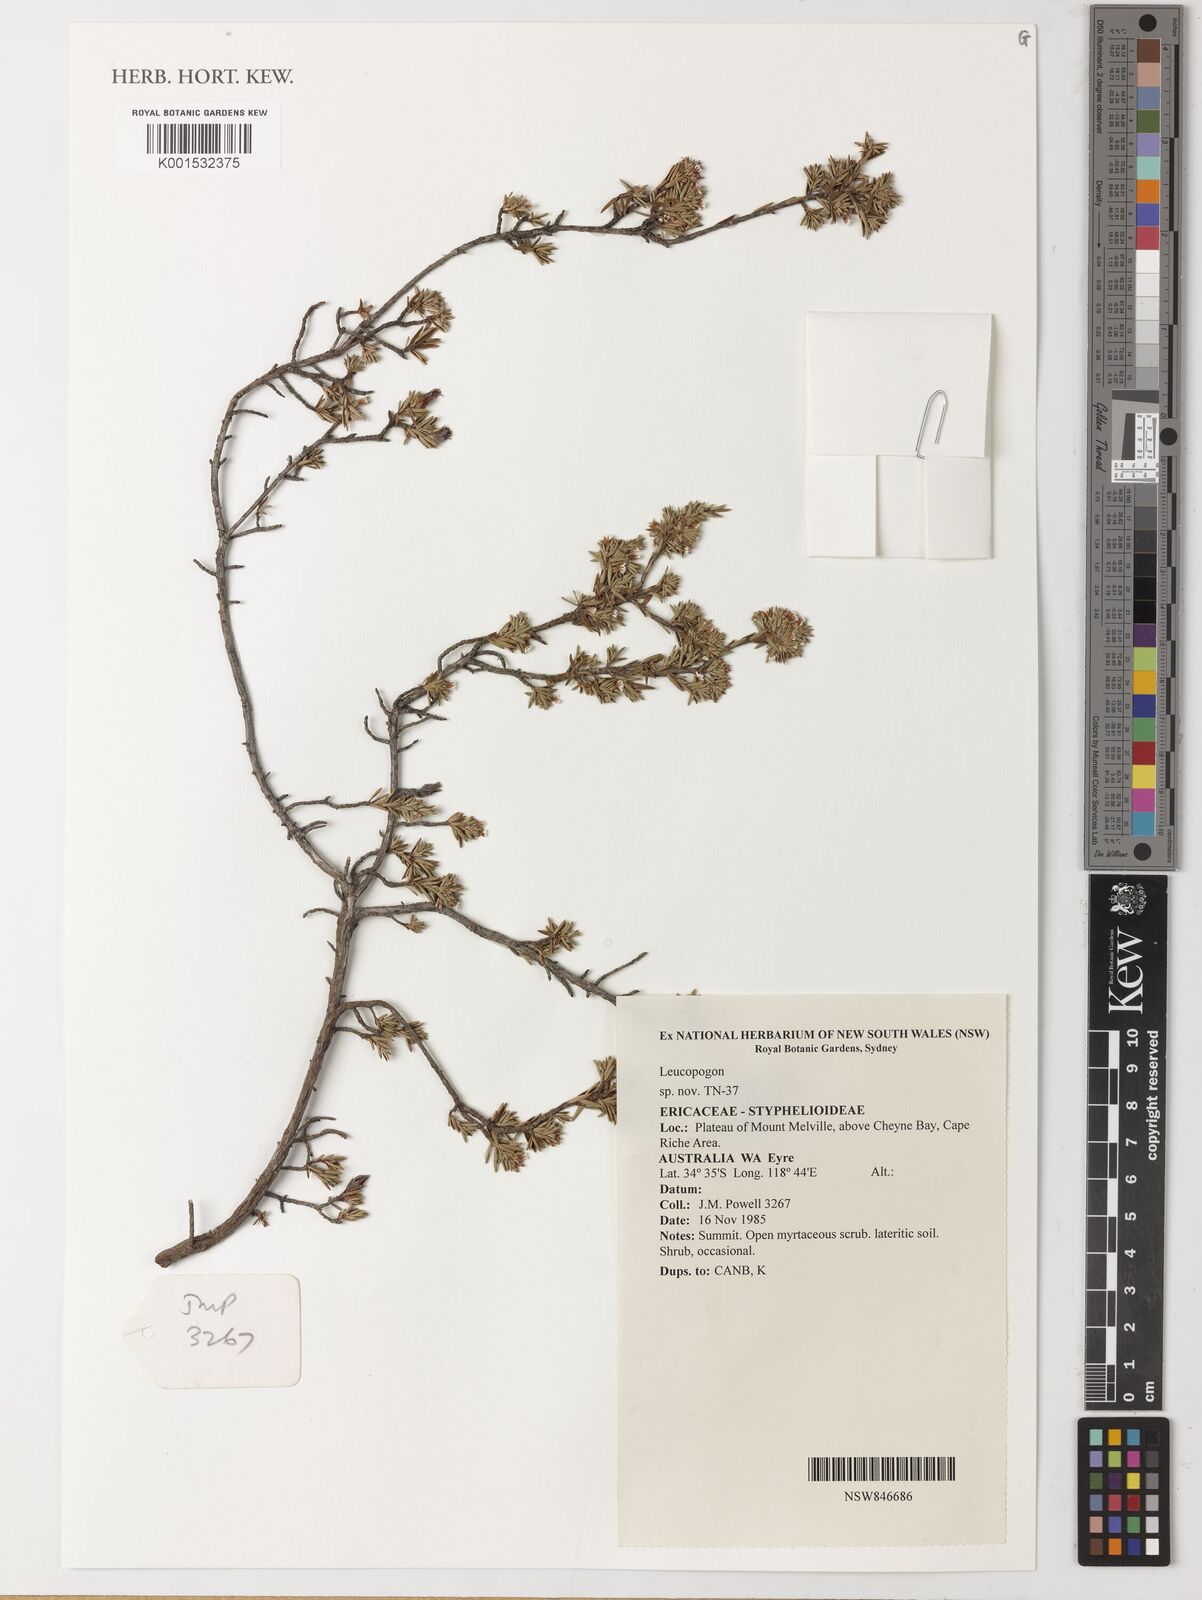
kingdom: Plantae
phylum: Tracheophyta
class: Magnoliopsida
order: Ericales
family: Ericaceae
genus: Leucopogon
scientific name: Leucopogon
